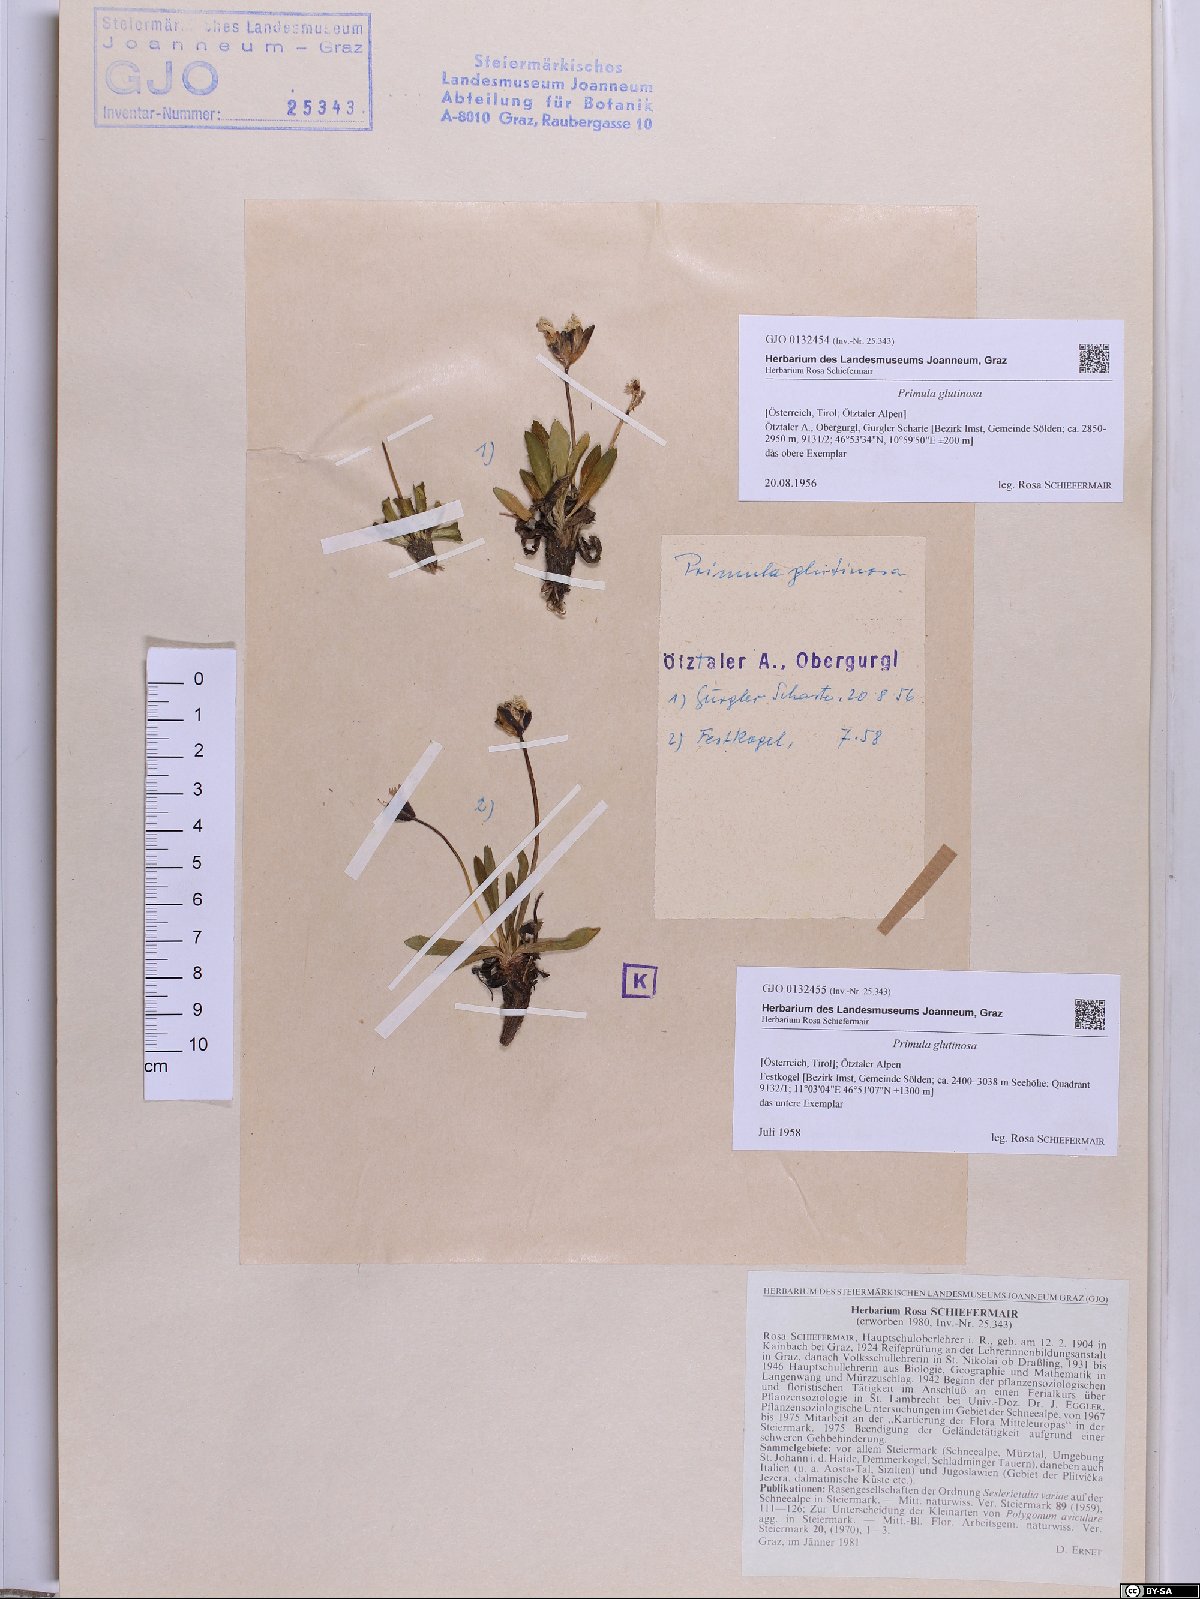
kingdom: Plantae
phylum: Tracheophyta
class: Magnoliopsida
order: Ericales
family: Primulaceae
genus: Primula
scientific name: Primula glutinosa
